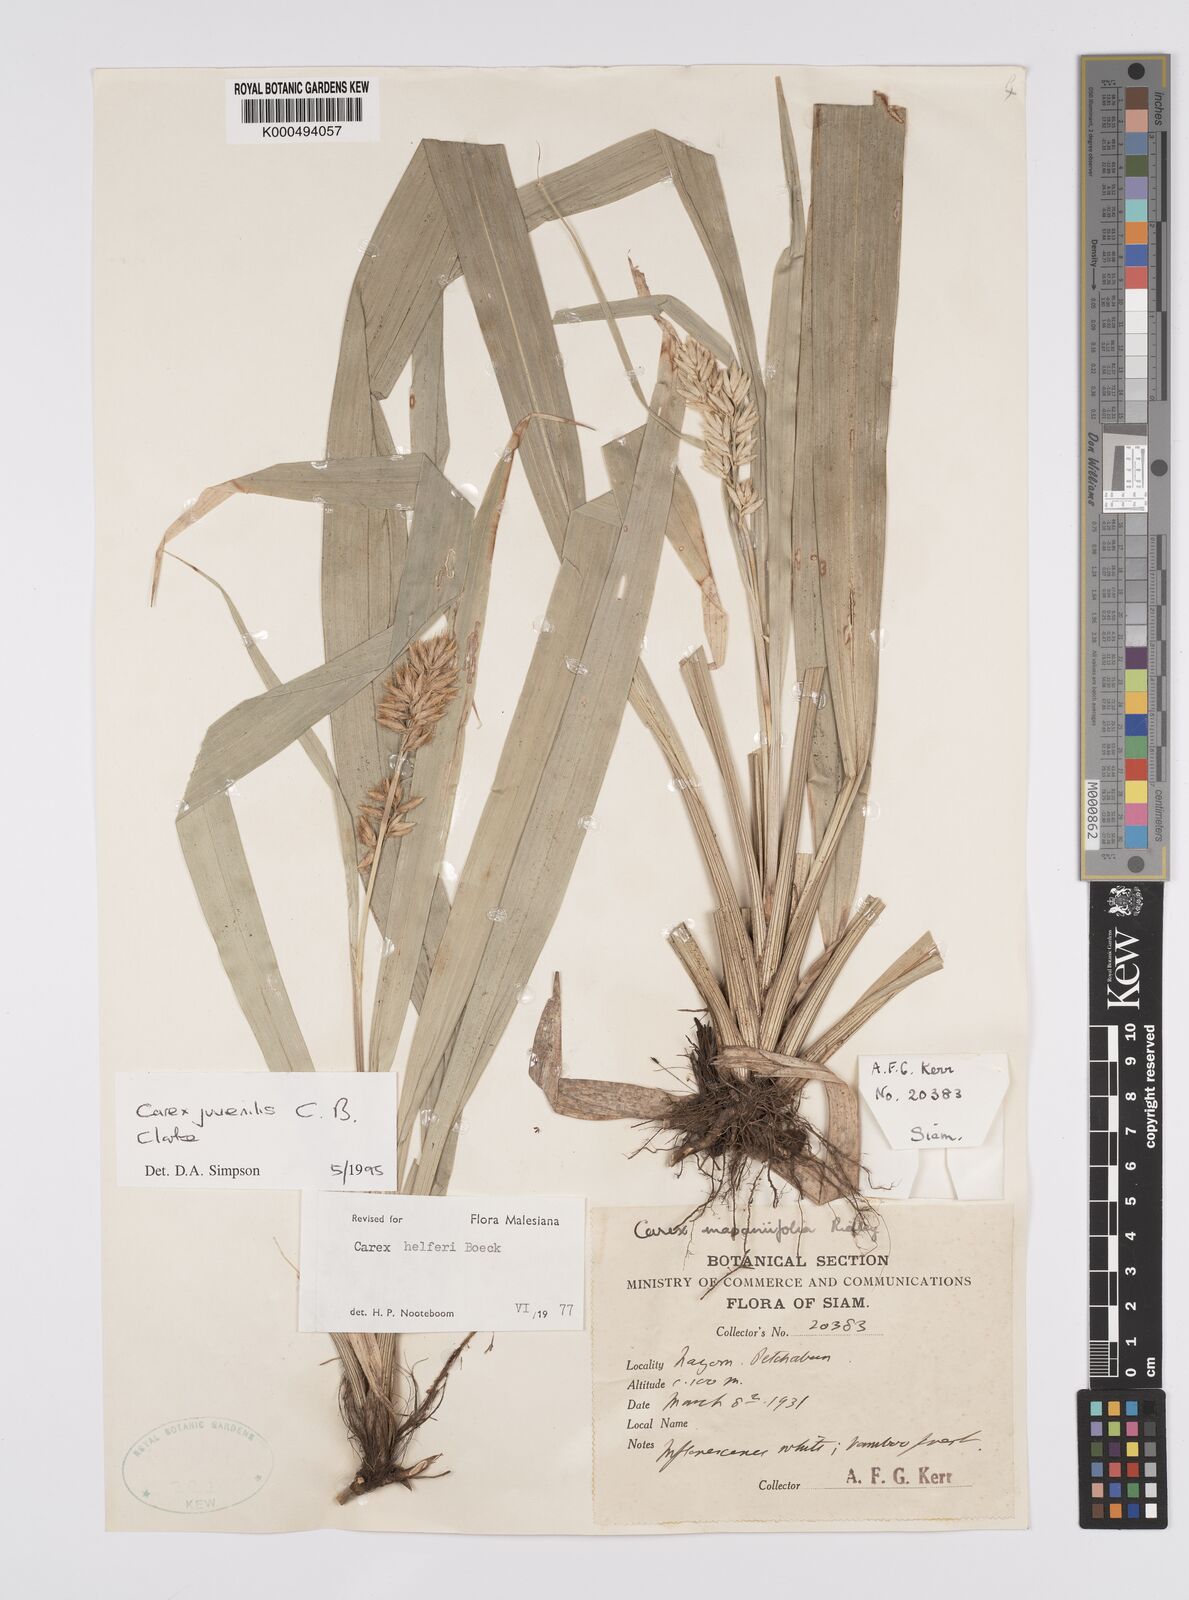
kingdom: Plantae
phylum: Tracheophyta
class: Liliopsida
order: Poales
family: Cyperaceae
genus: Carex
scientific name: Carex juvenilis
